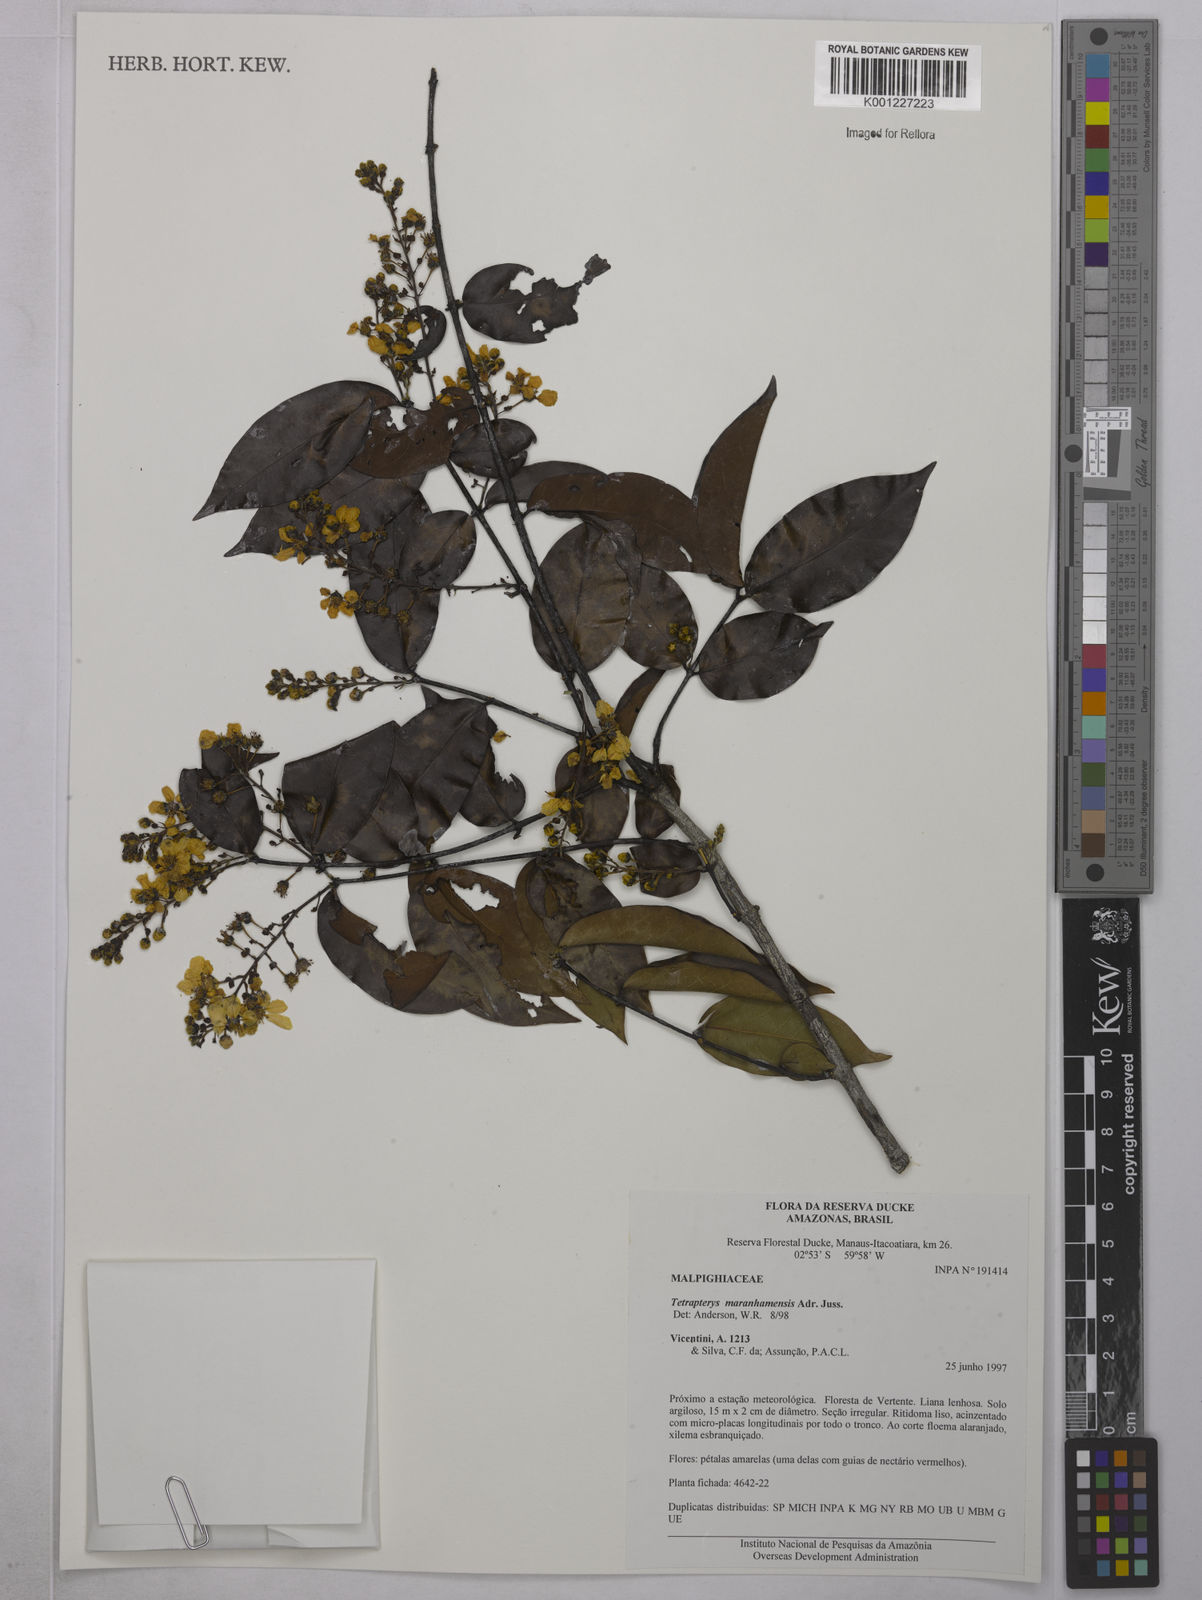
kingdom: Plantae
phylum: Tracheophyta
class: Magnoliopsida
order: Malpighiales
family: Malpighiaceae
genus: Glicophyllum
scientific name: Glicophyllum maranhamense
